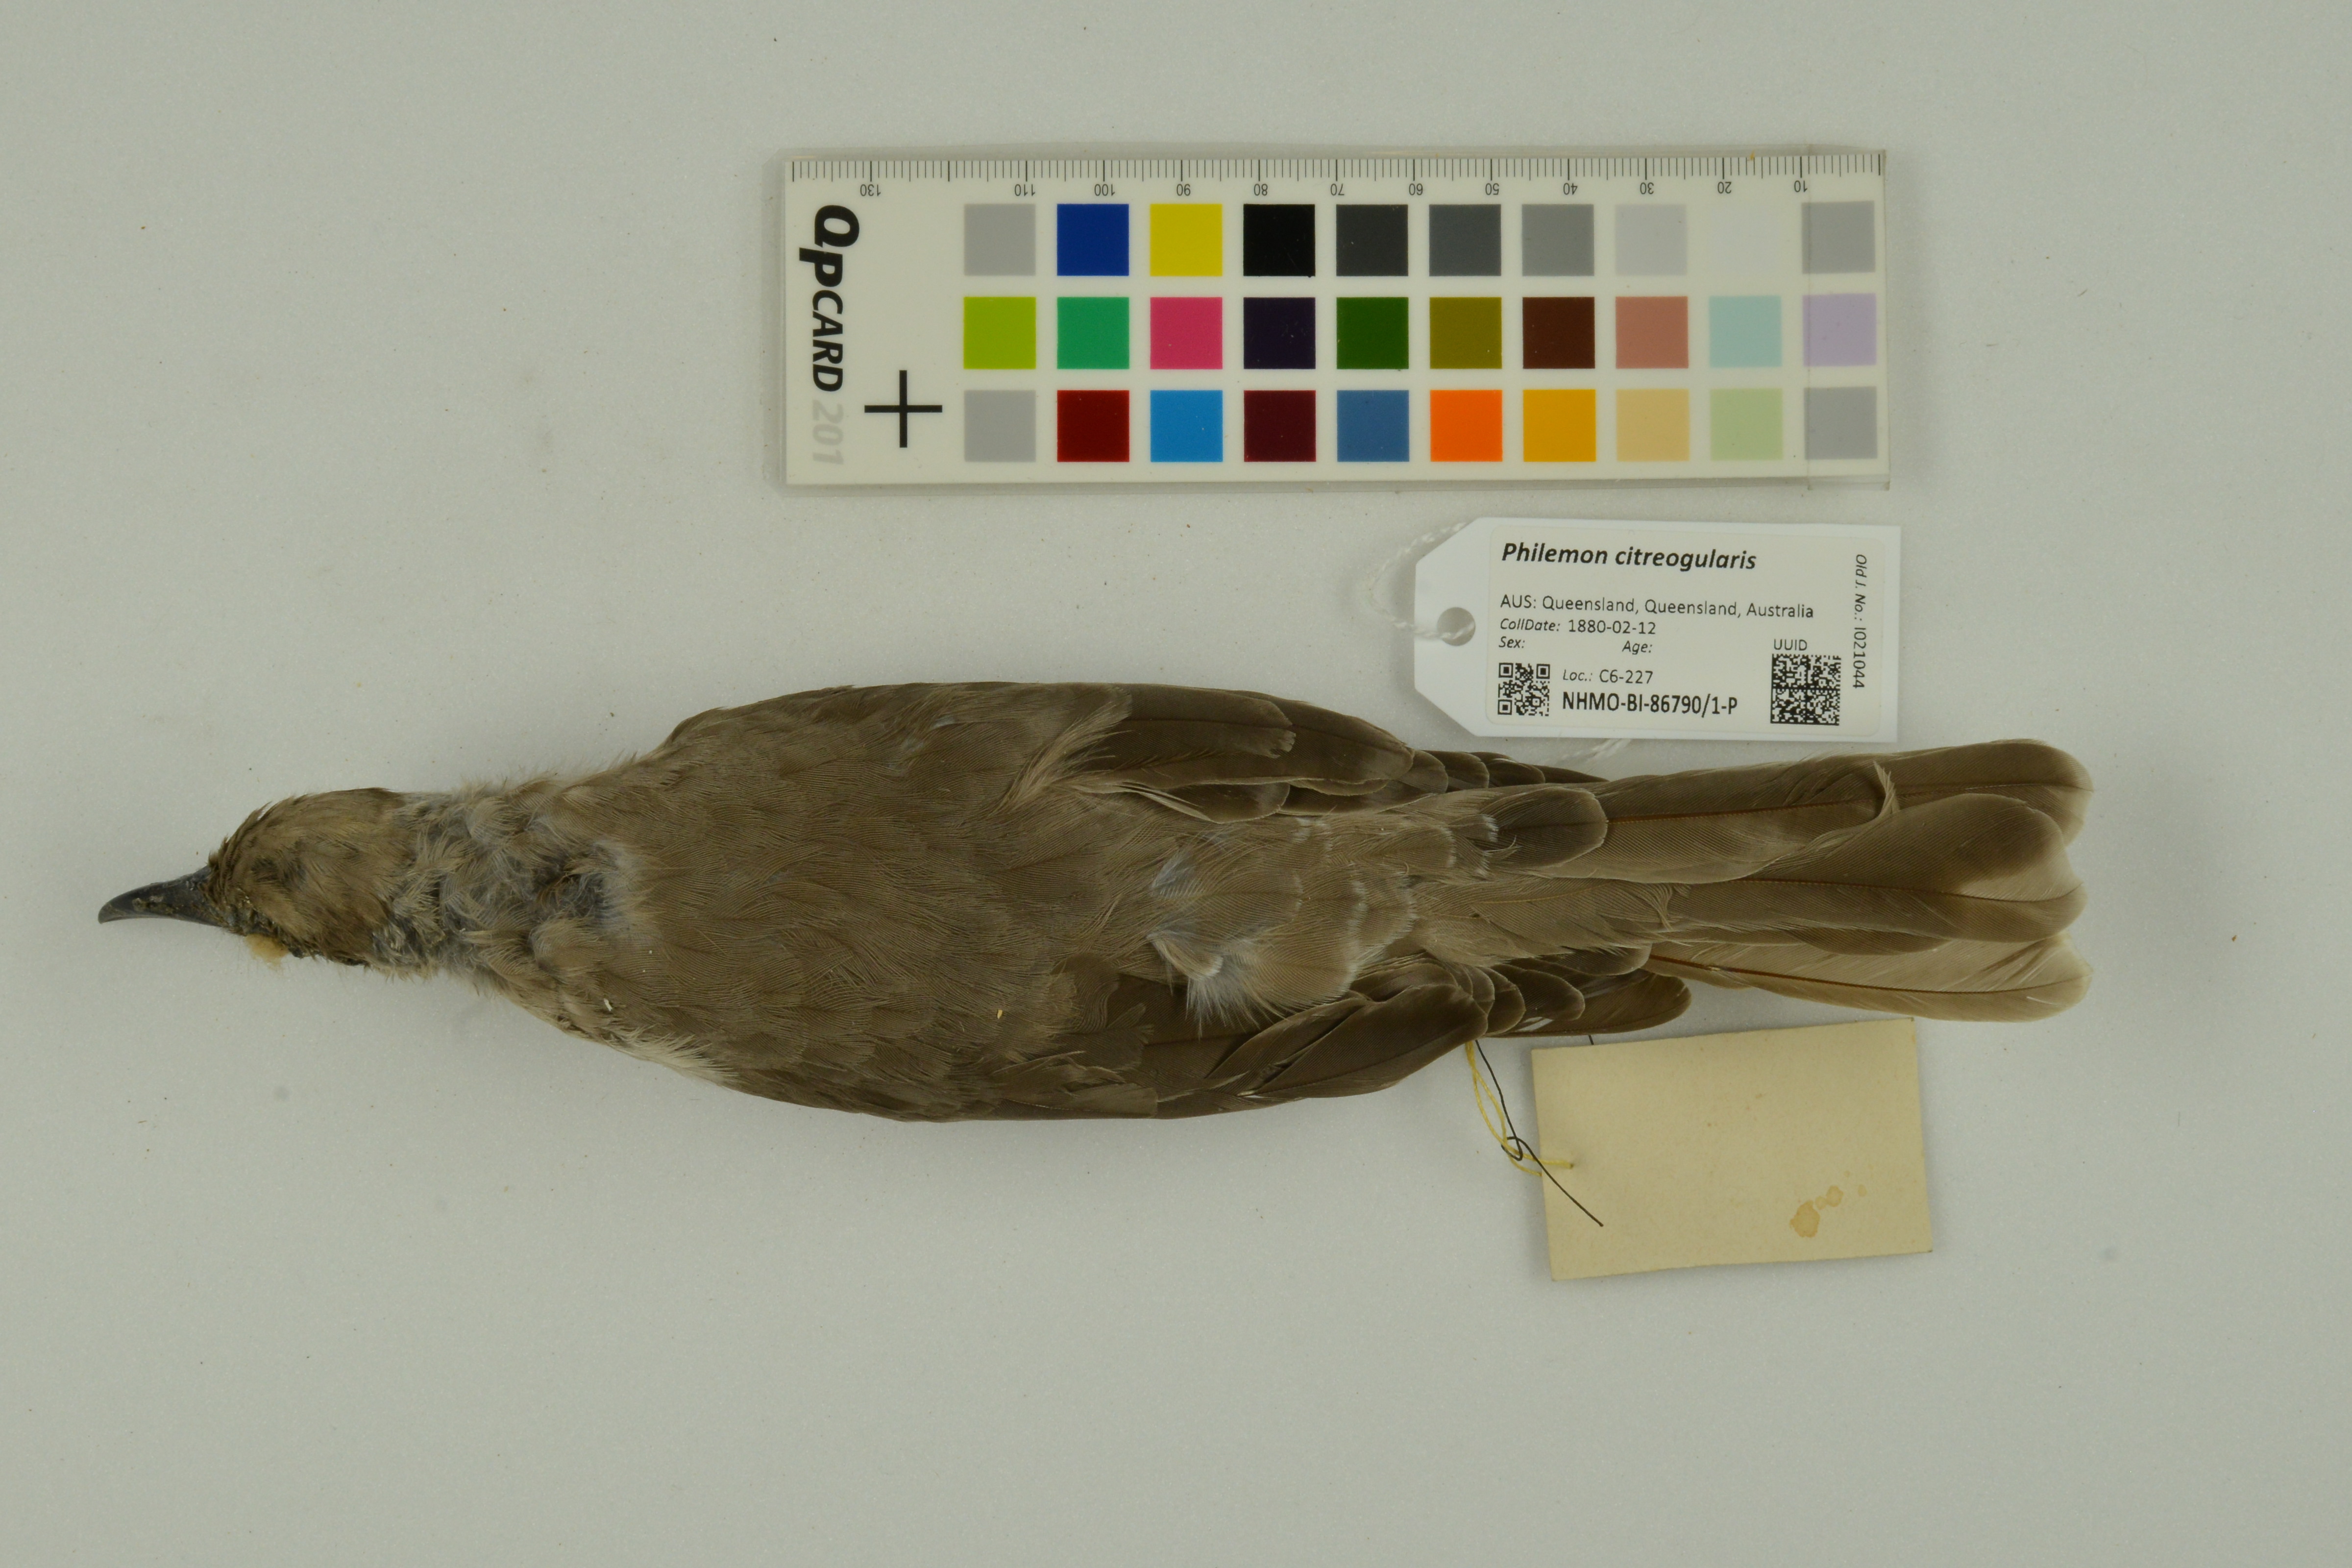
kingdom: Animalia
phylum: Chordata
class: Aves
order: Passeriformes
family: Meliphagidae
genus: Philemon
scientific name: Philemon citreogularis
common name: Little friarbird
